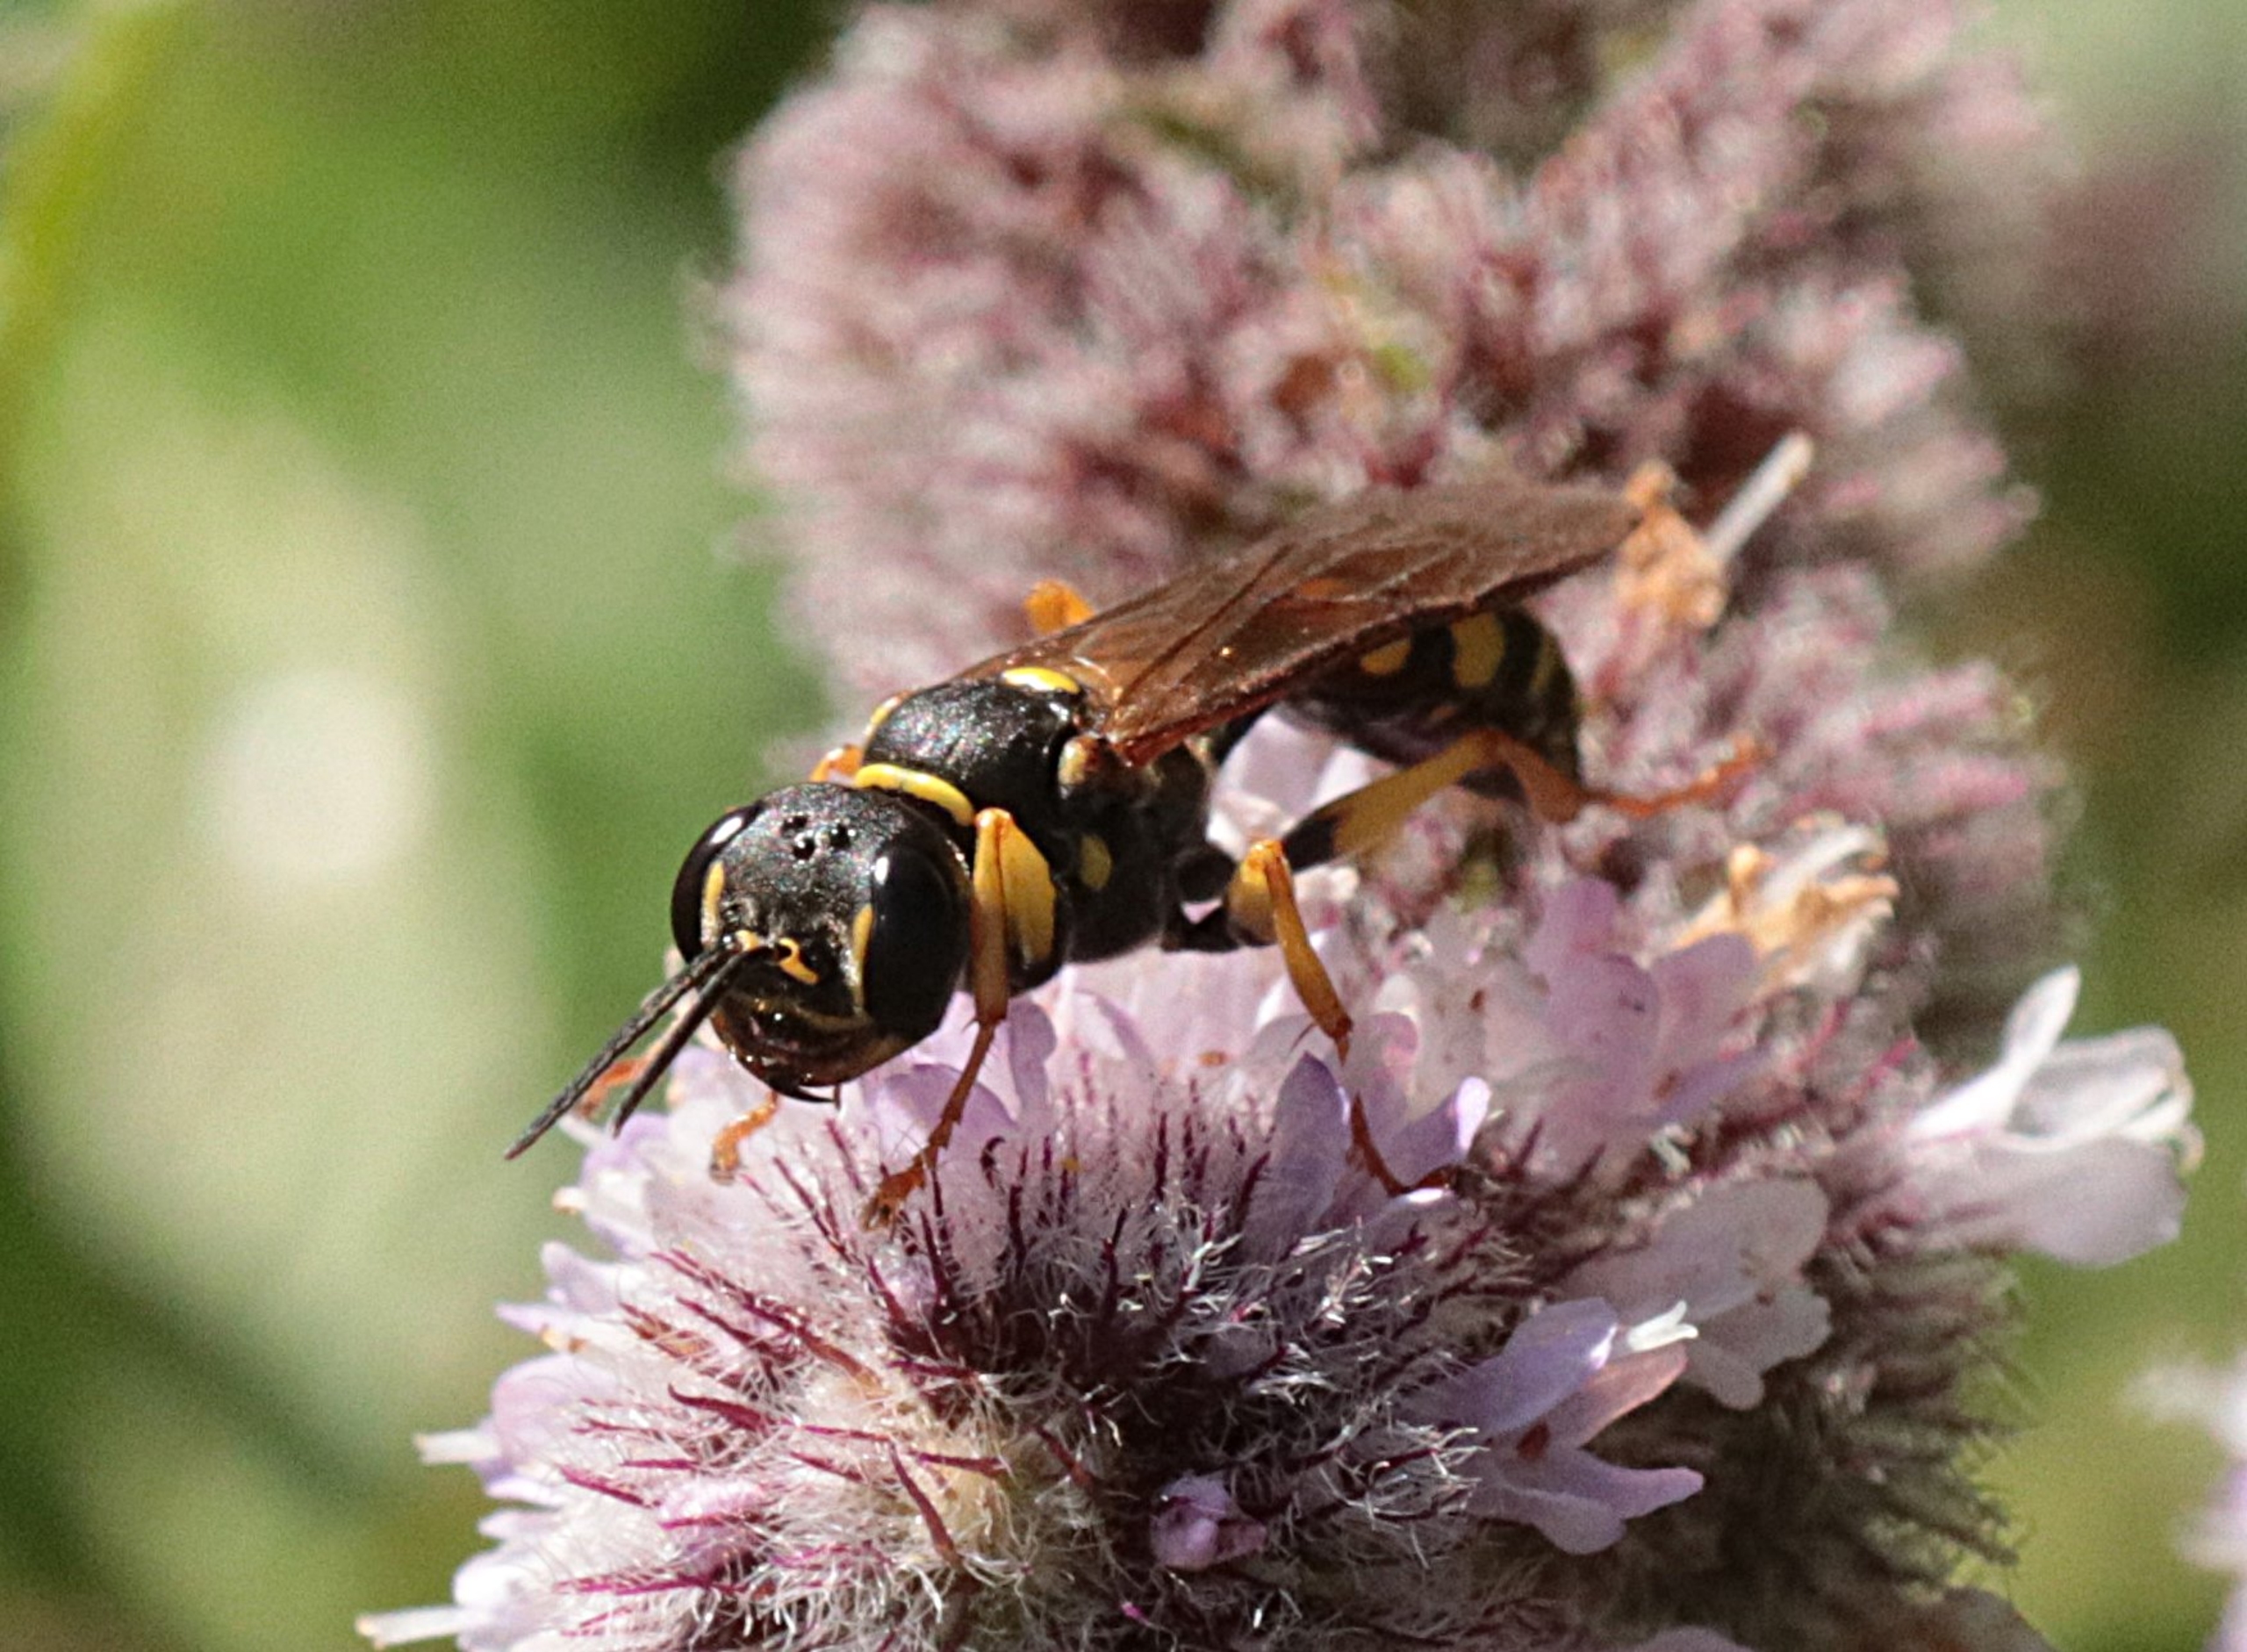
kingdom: Animalia
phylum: Arthropoda
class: Insecta
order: Hymenoptera
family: Crabronidae
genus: Mellinus
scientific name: Mellinus arvensis
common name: Efterårsgravehveps
